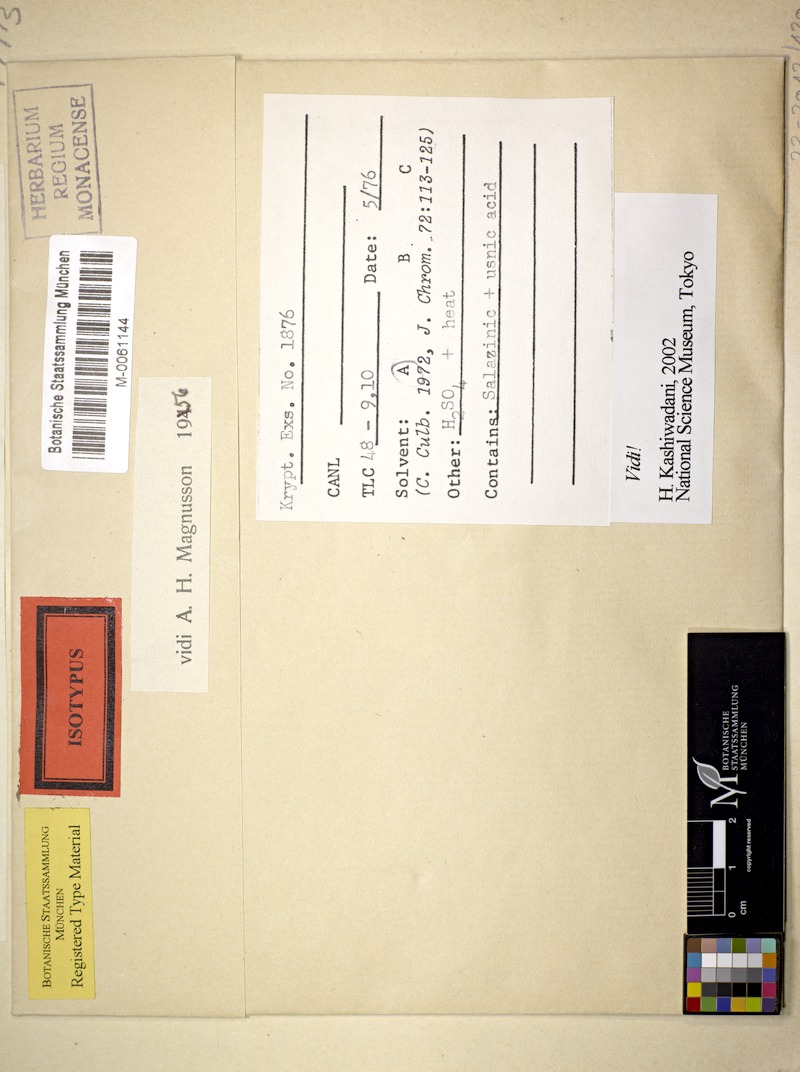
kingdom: Fungi
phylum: Ascomycota
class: Lecanoromycetes
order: Lecanorales
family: Ramalinaceae
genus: Ramalina
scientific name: Ramalina sideriza
